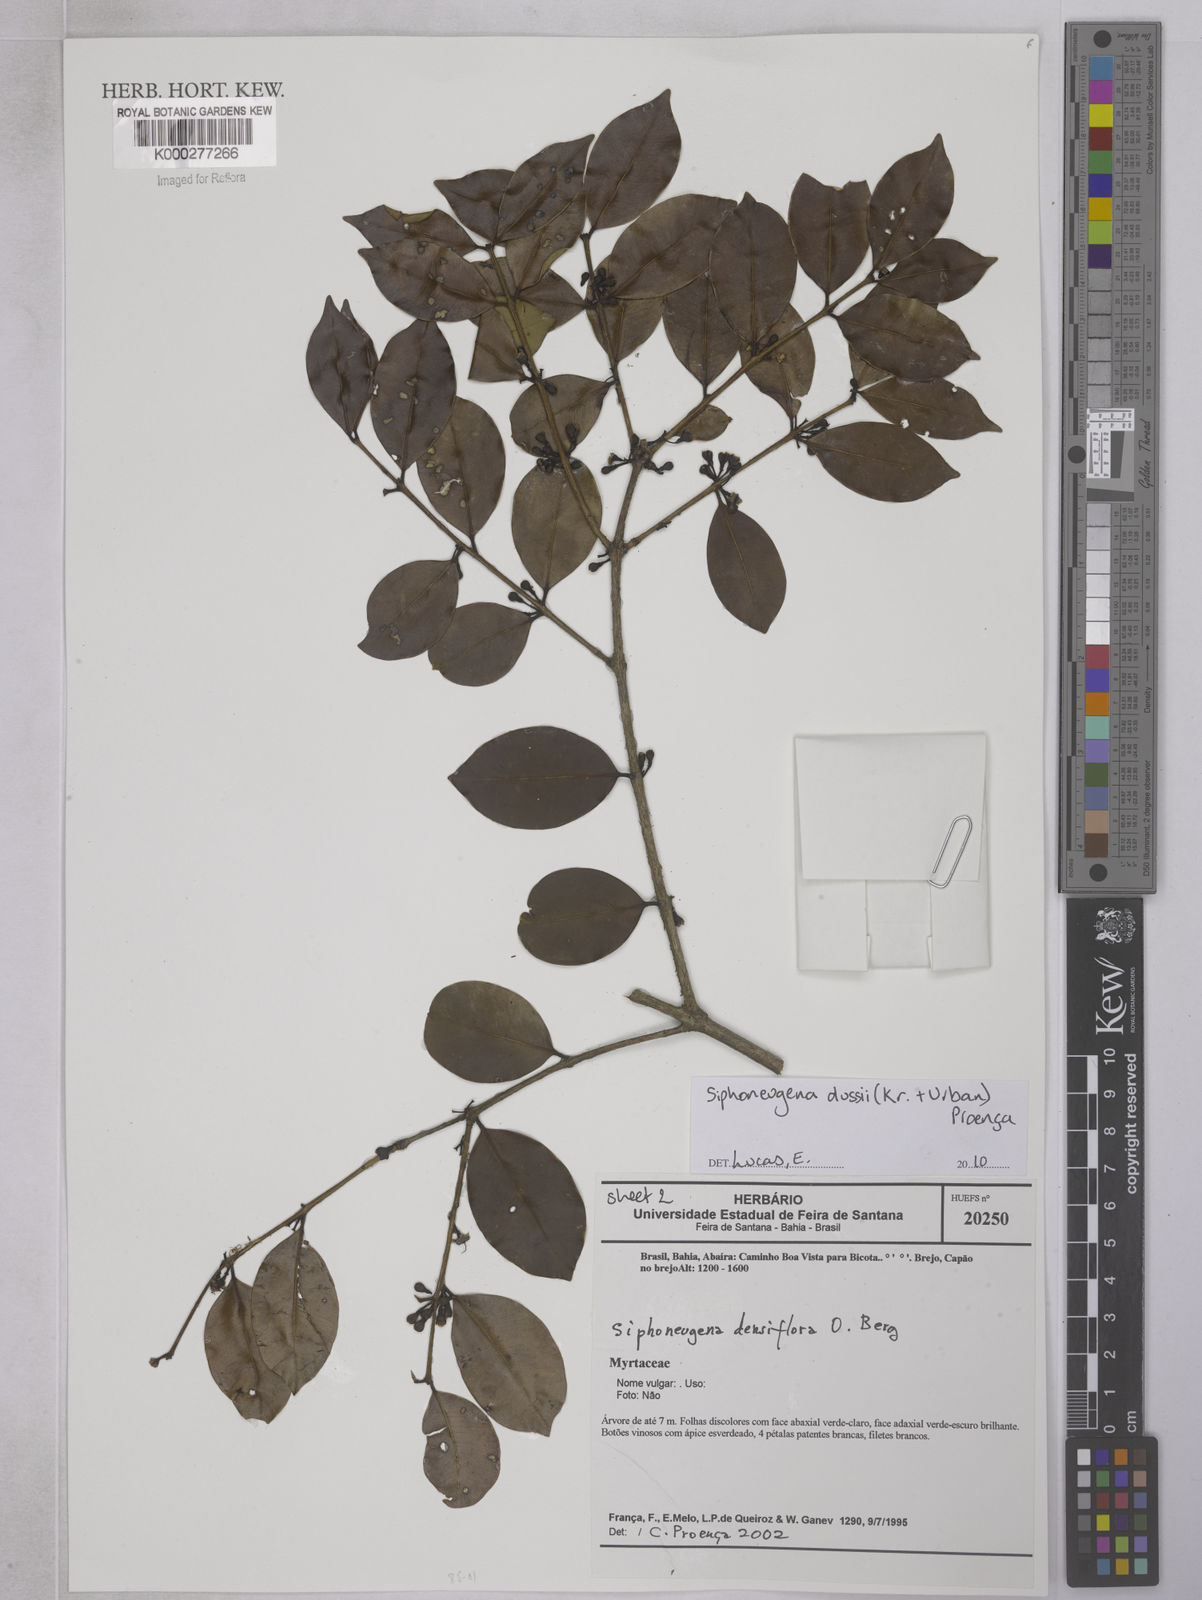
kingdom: Plantae
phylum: Tracheophyta
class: Magnoliopsida
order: Myrtales
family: Myrtaceae
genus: Siphoneugena
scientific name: Siphoneugena dussii
